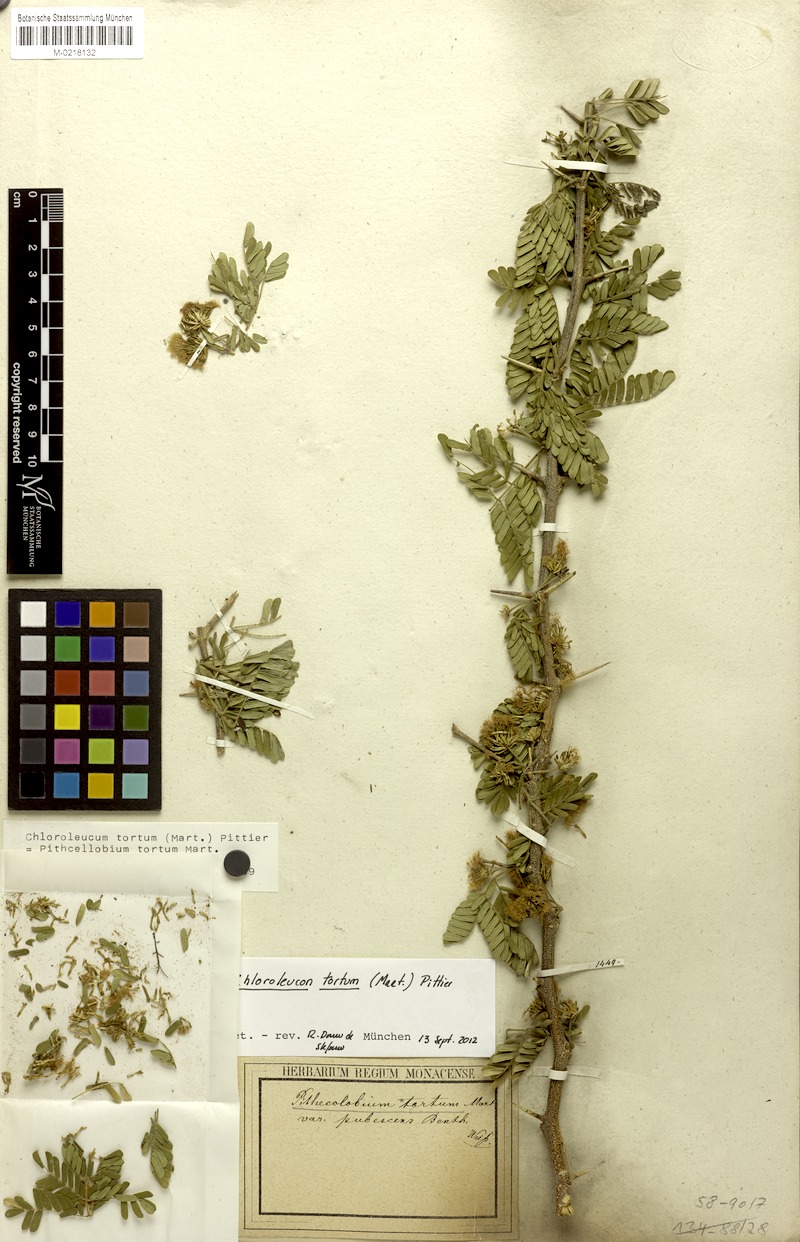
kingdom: Plantae
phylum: Tracheophyta
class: Magnoliopsida
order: Fabales
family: Fabaceae
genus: Chloroleucon
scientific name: Chloroleucon tortum
